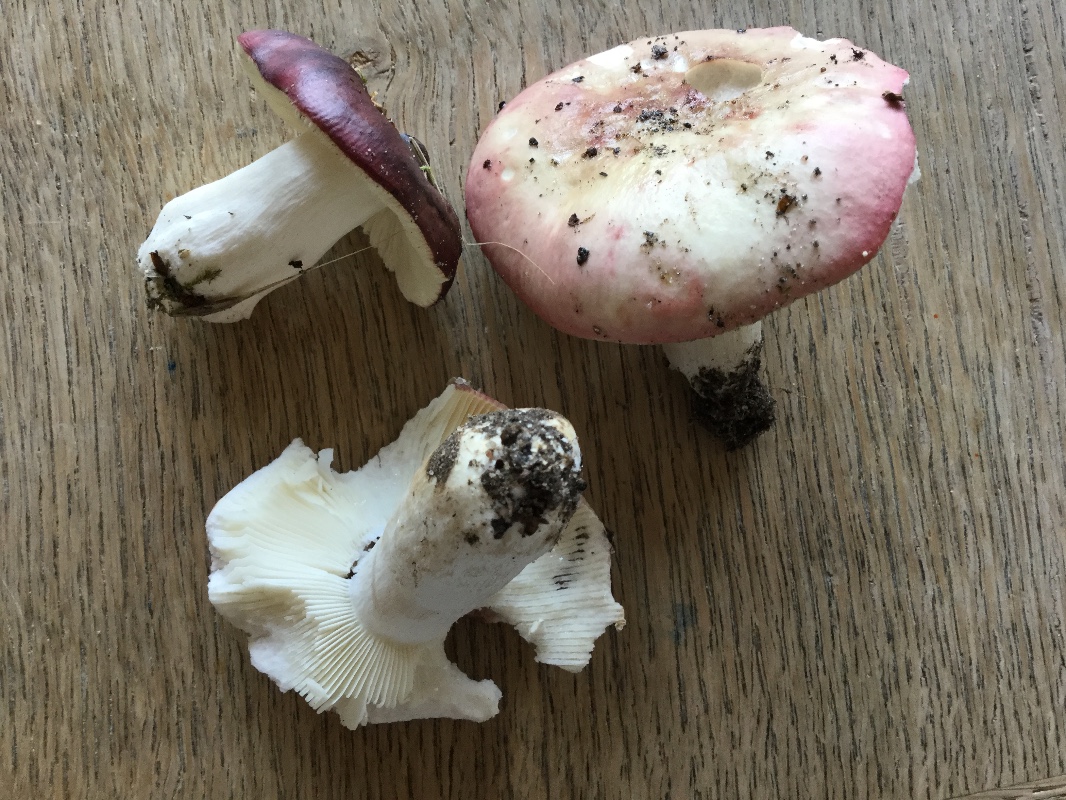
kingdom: Fungi
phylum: Basidiomycota
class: Agaricomycetes
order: Russulales
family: Russulaceae
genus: Russula
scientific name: Russula
